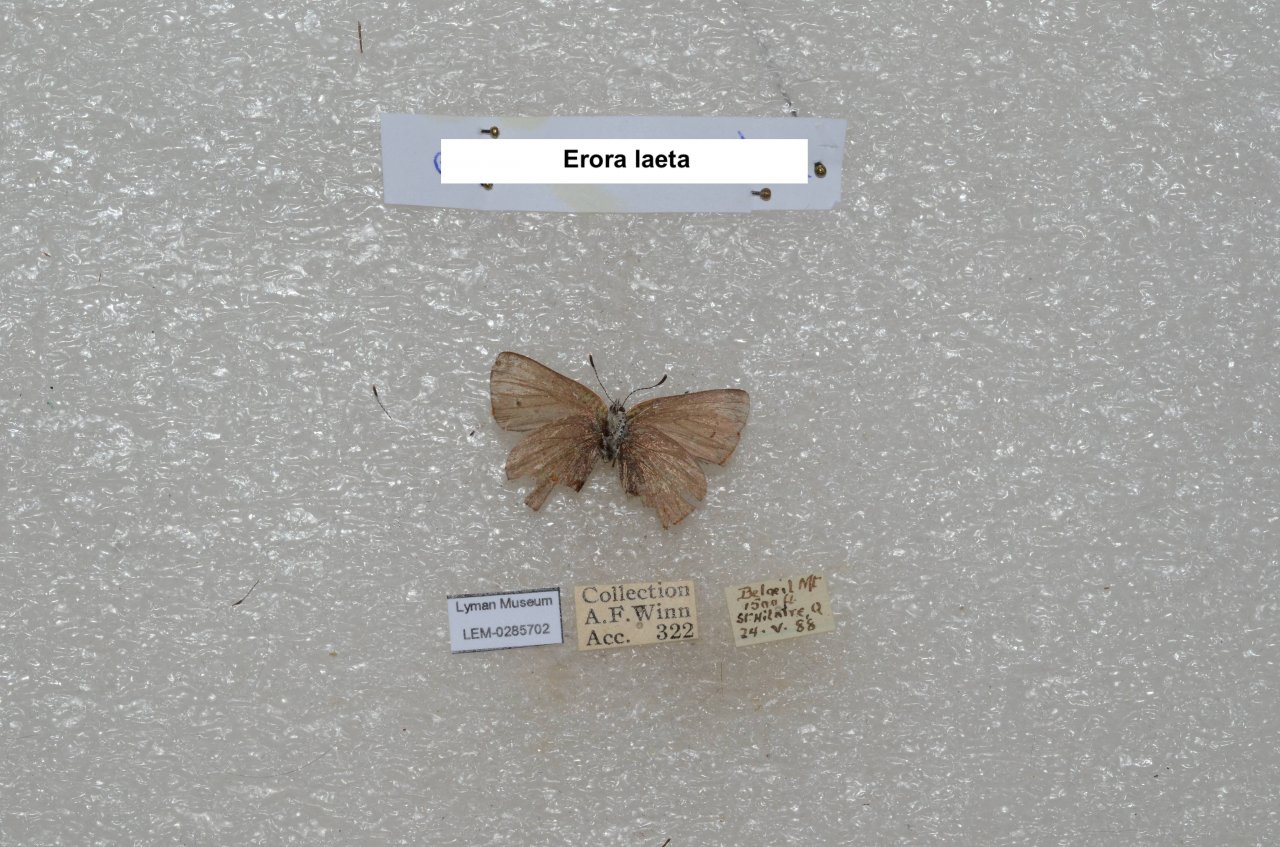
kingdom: Animalia
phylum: Arthropoda
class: Insecta
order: Lepidoptera
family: Lycaenidae
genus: Erora
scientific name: Erora laeta
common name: Early Hairstreak
